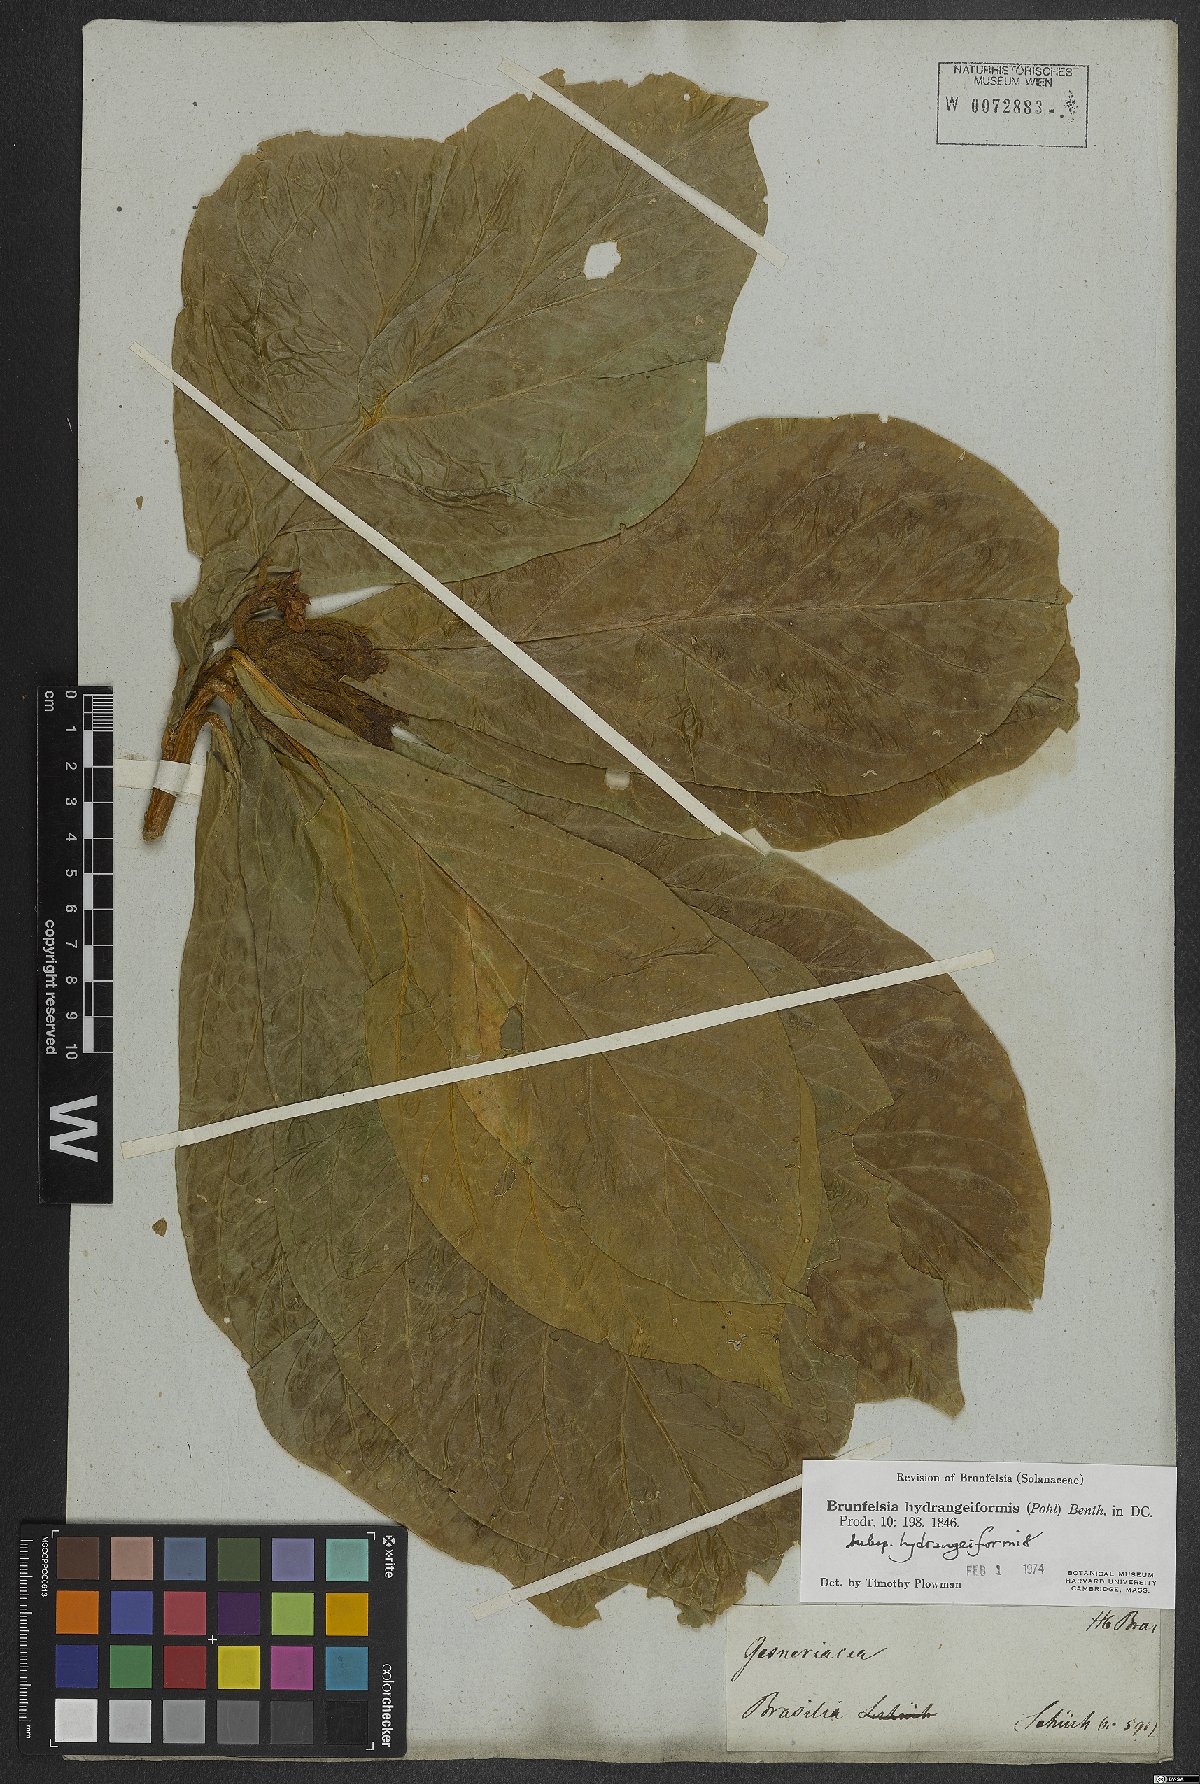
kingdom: Plantae
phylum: Tracheophyta
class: Magnoliopsida
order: Solanales
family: Solanaceae
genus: Brunfelsia
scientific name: Brunfelsia hydrangeiformis
